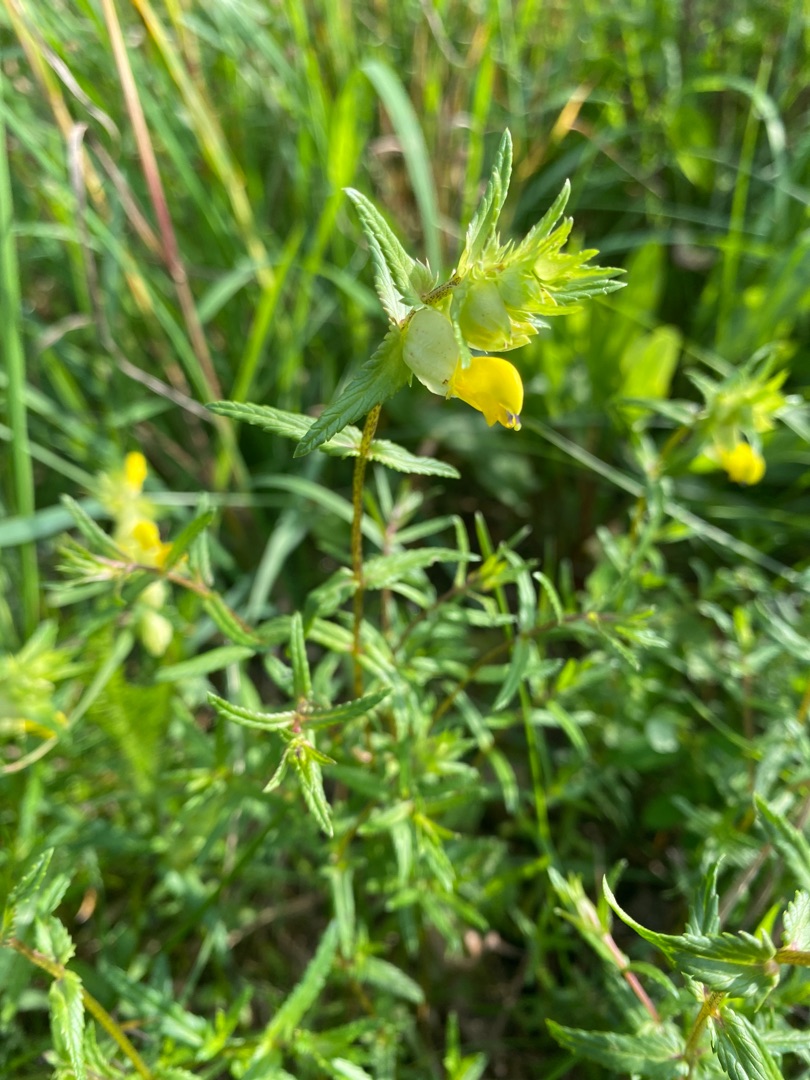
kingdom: Plantae
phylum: Tracheophyta
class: Magnoliopsida
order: Lamiales
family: Orobanchaceae
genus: Rhinanthus
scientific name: Rhinanthus
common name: Stor skjaller
